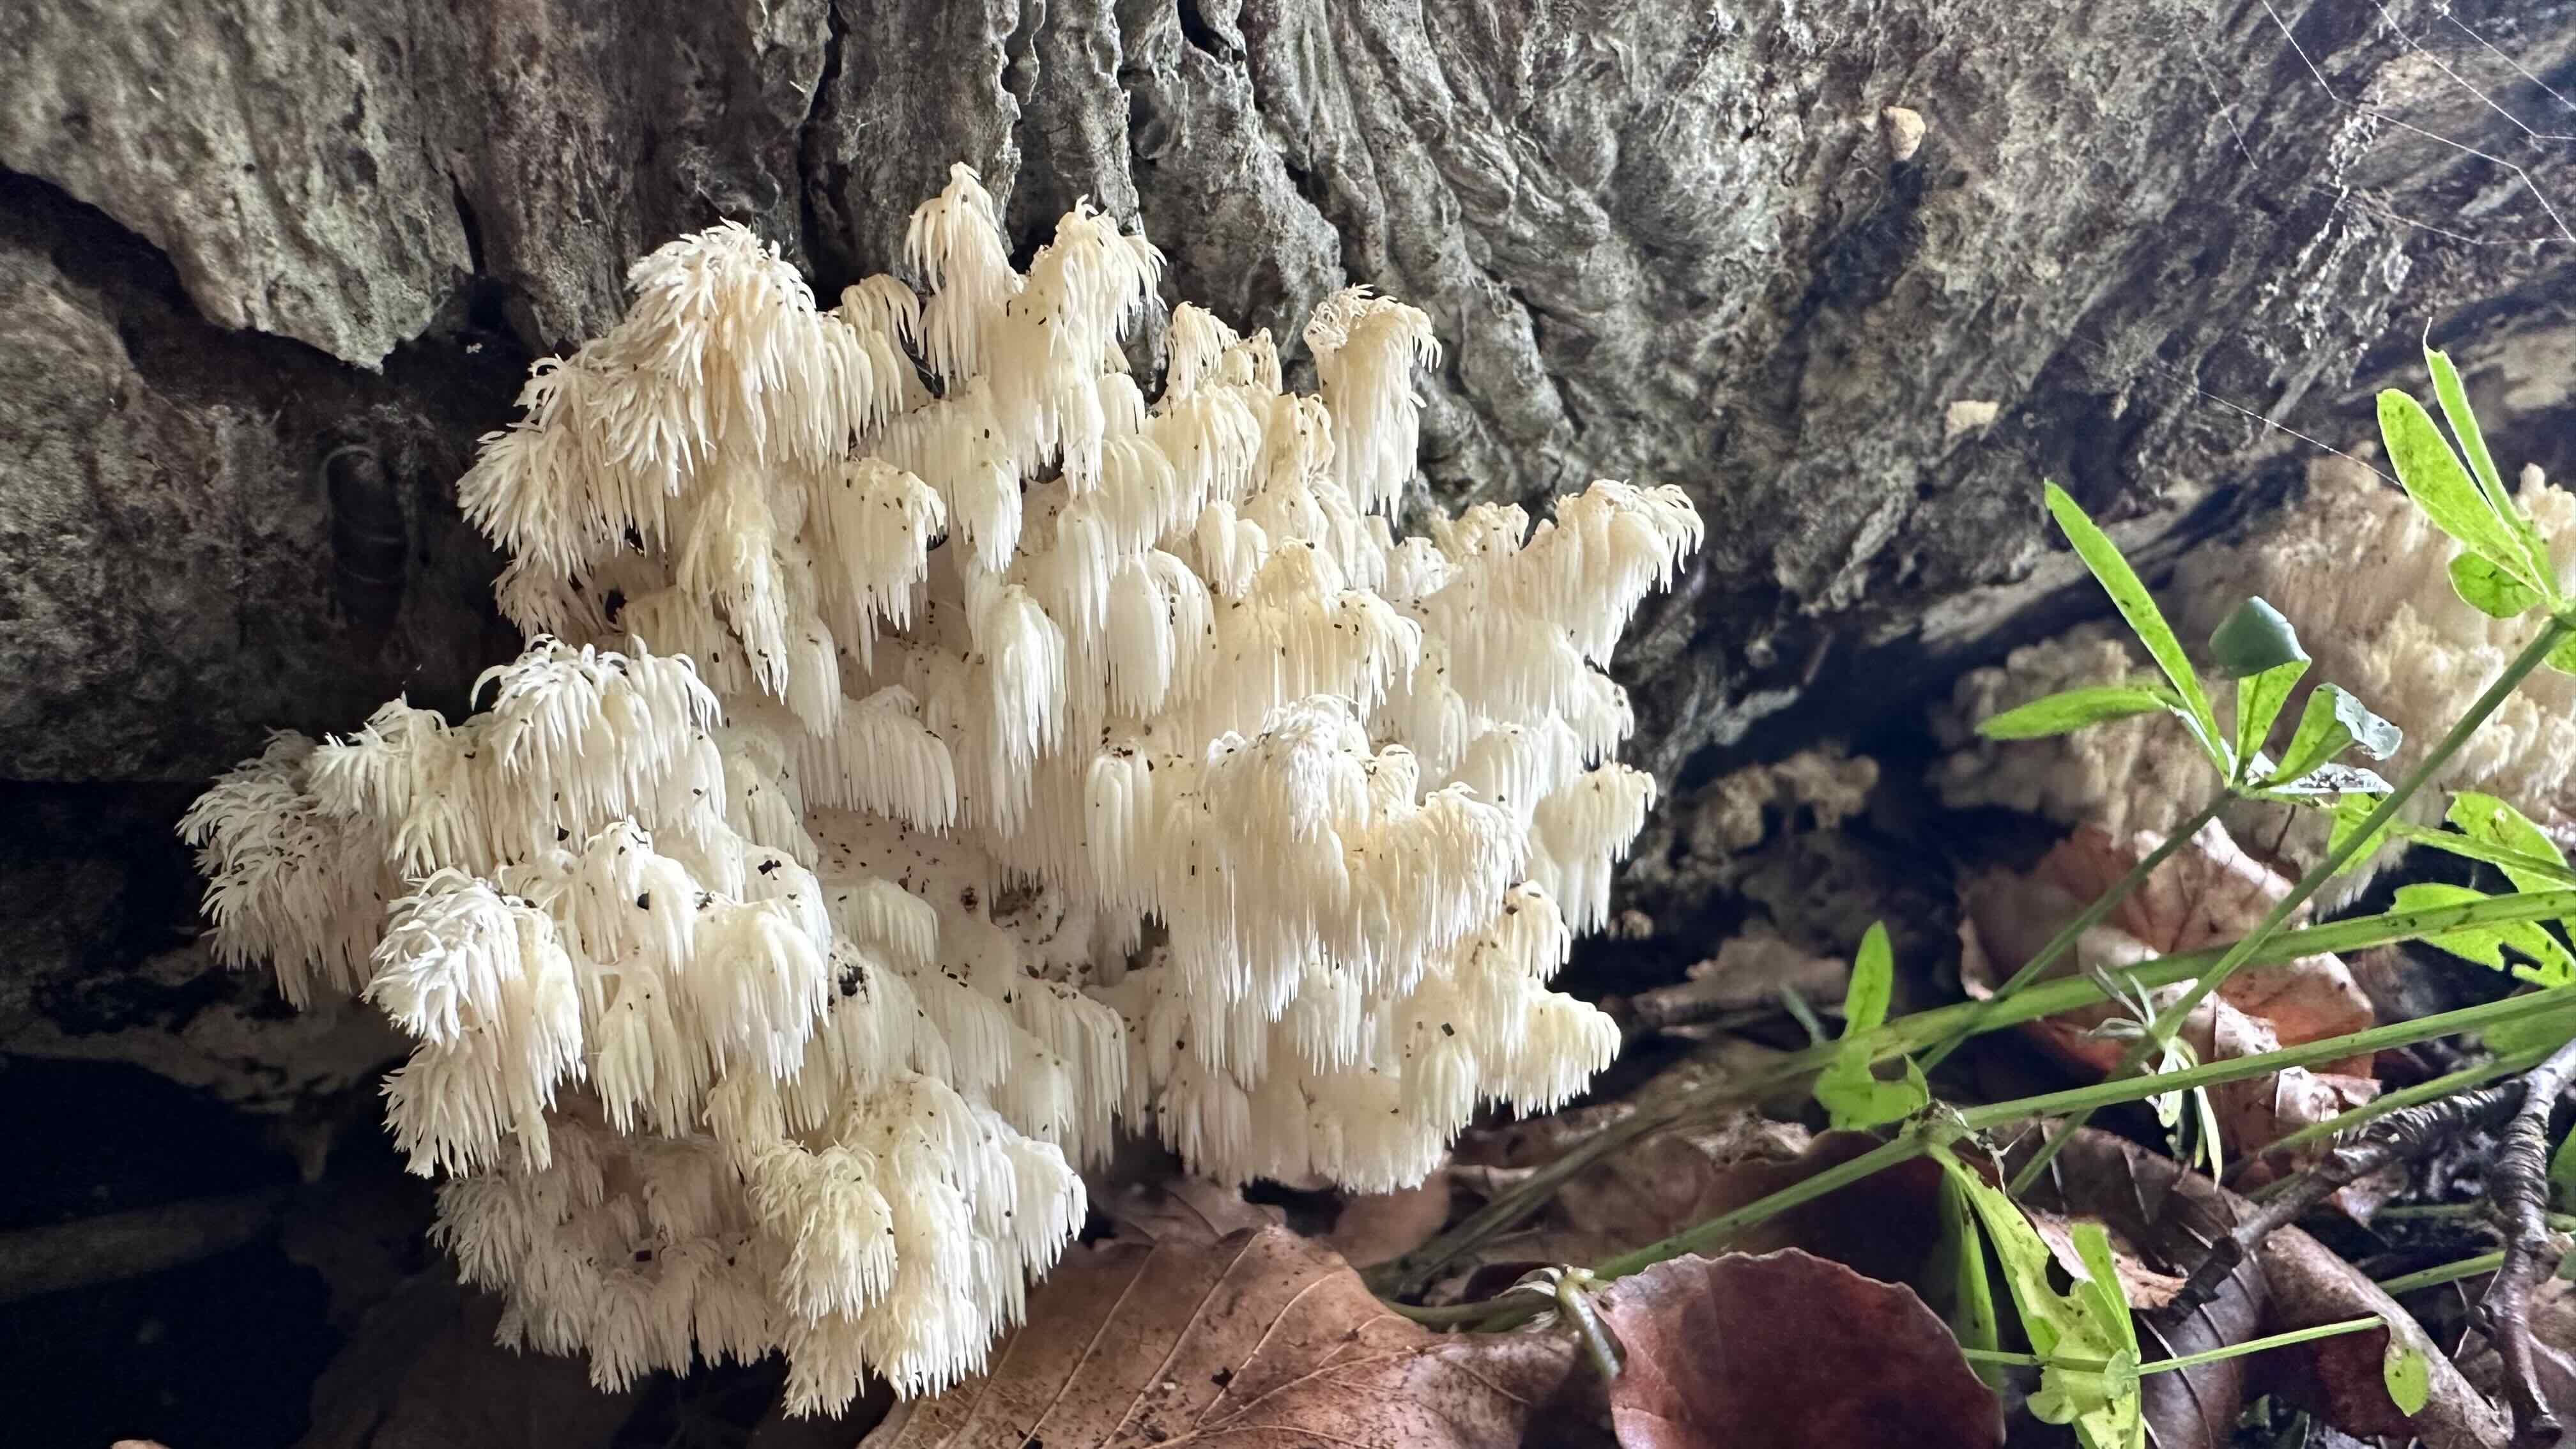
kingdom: Fungi
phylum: Basidiomycota
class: Agaricomycetes
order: Russulales
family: Hericiaceae
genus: Hericium
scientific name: Hericium coralloides
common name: koralpigsvamp
